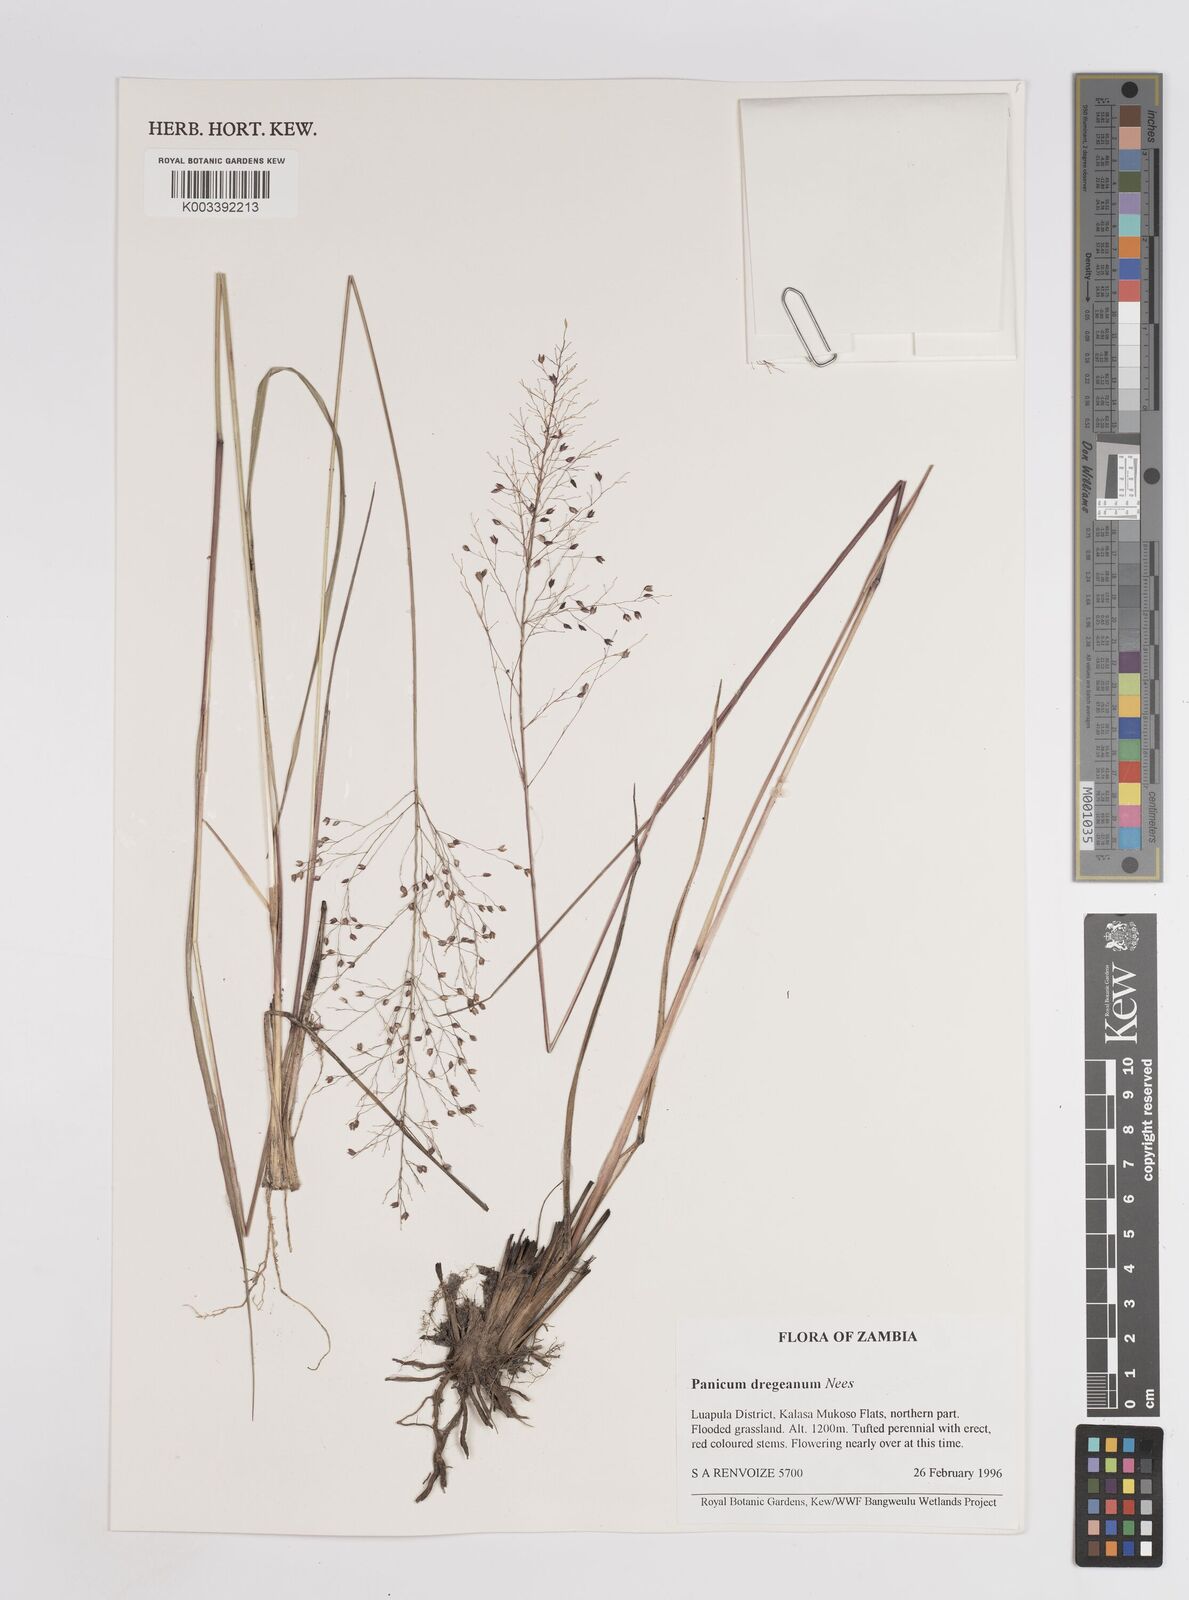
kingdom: Plantae
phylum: Tracheophyta
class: Liliopsida
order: Poales
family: Poaceae
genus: Panicum
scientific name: Panicum dregeanum
